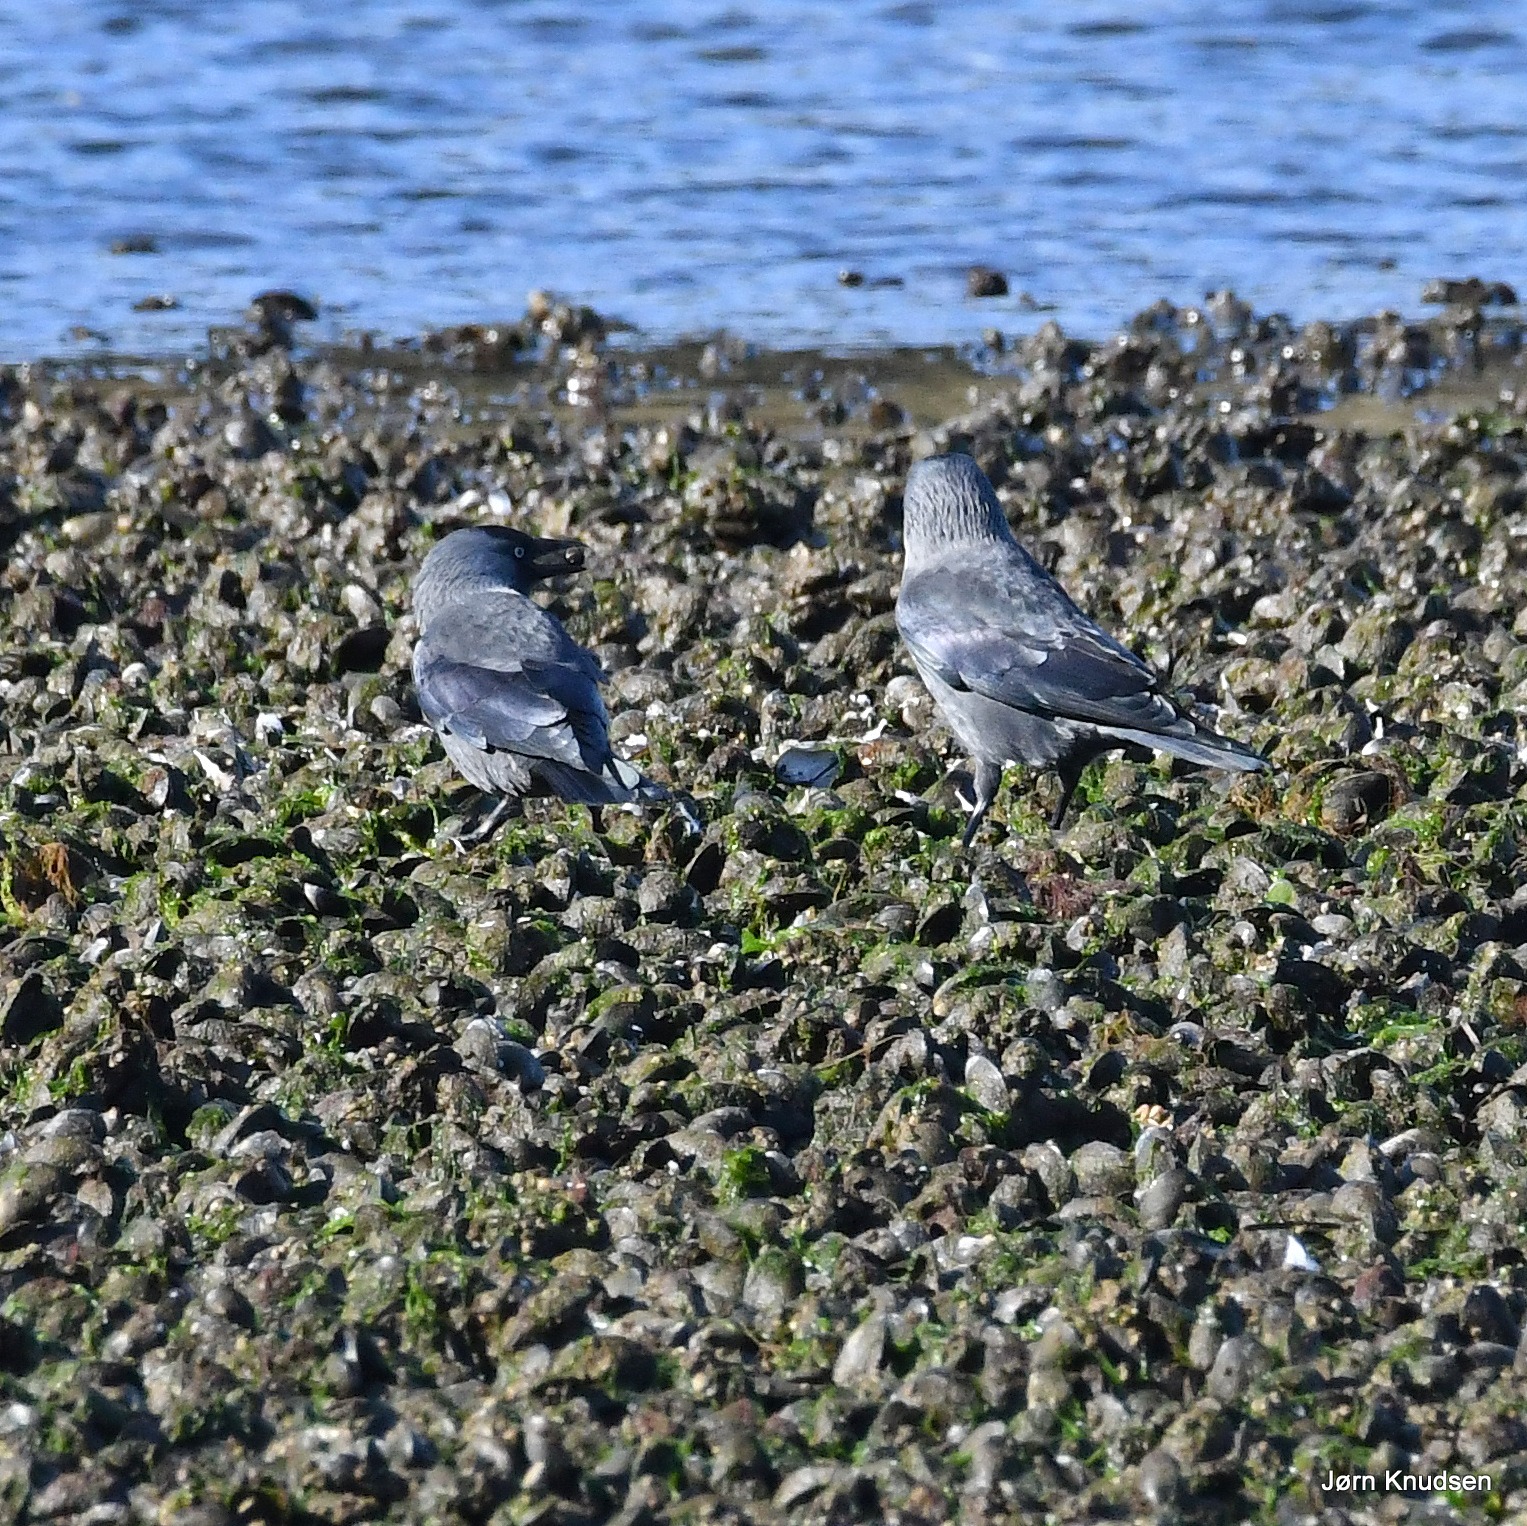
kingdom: Animalia
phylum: Chordata
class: Aves
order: Passeriformes
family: Corvidae
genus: Coloeus
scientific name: Coloeus monedula
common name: Allike
